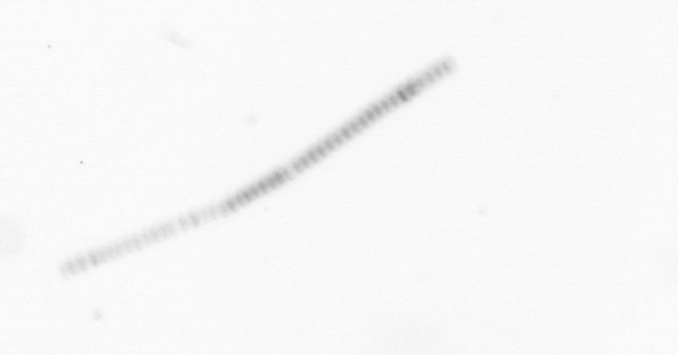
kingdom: Chromista
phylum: Ochrophyta
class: Bacillariophyceae
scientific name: Bacillariophyceae
